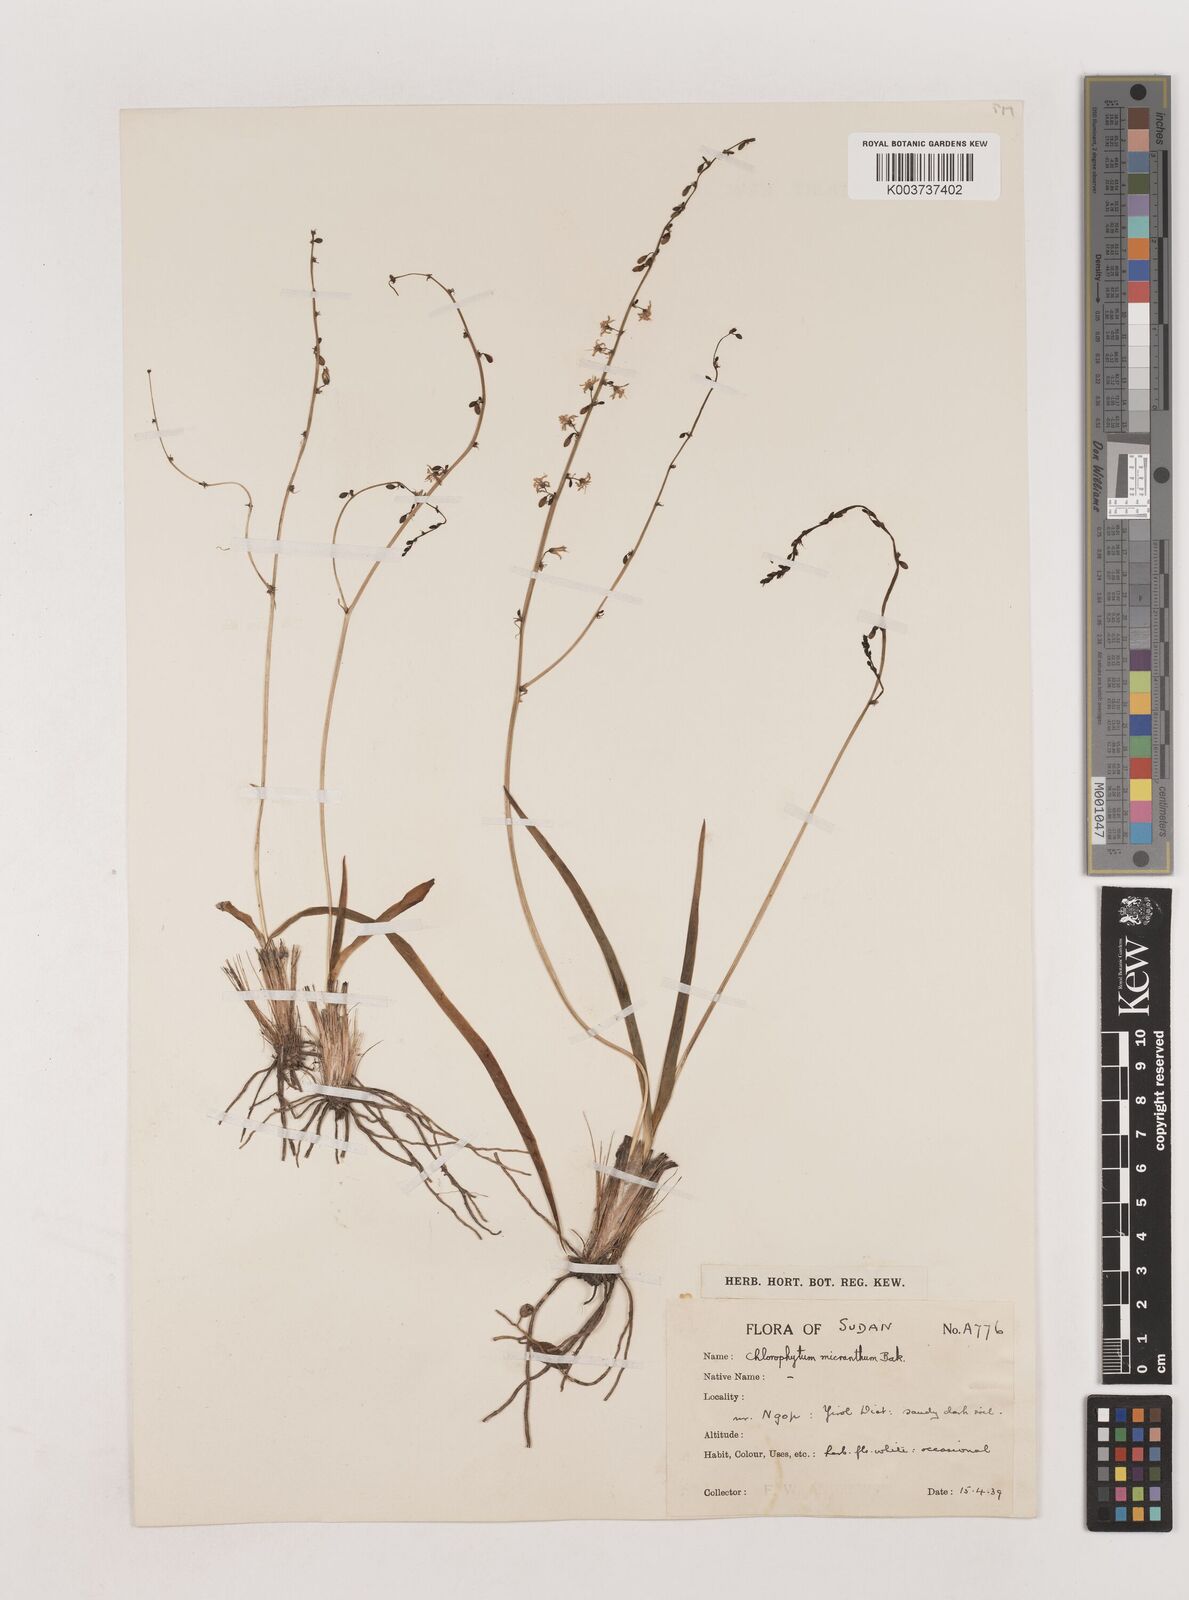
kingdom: Plantae
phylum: Tracheophyta
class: Liliopsida
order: Asparagales
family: Asparagaceae
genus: Chlorophytum
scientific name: Chlorophytum gallabatense
